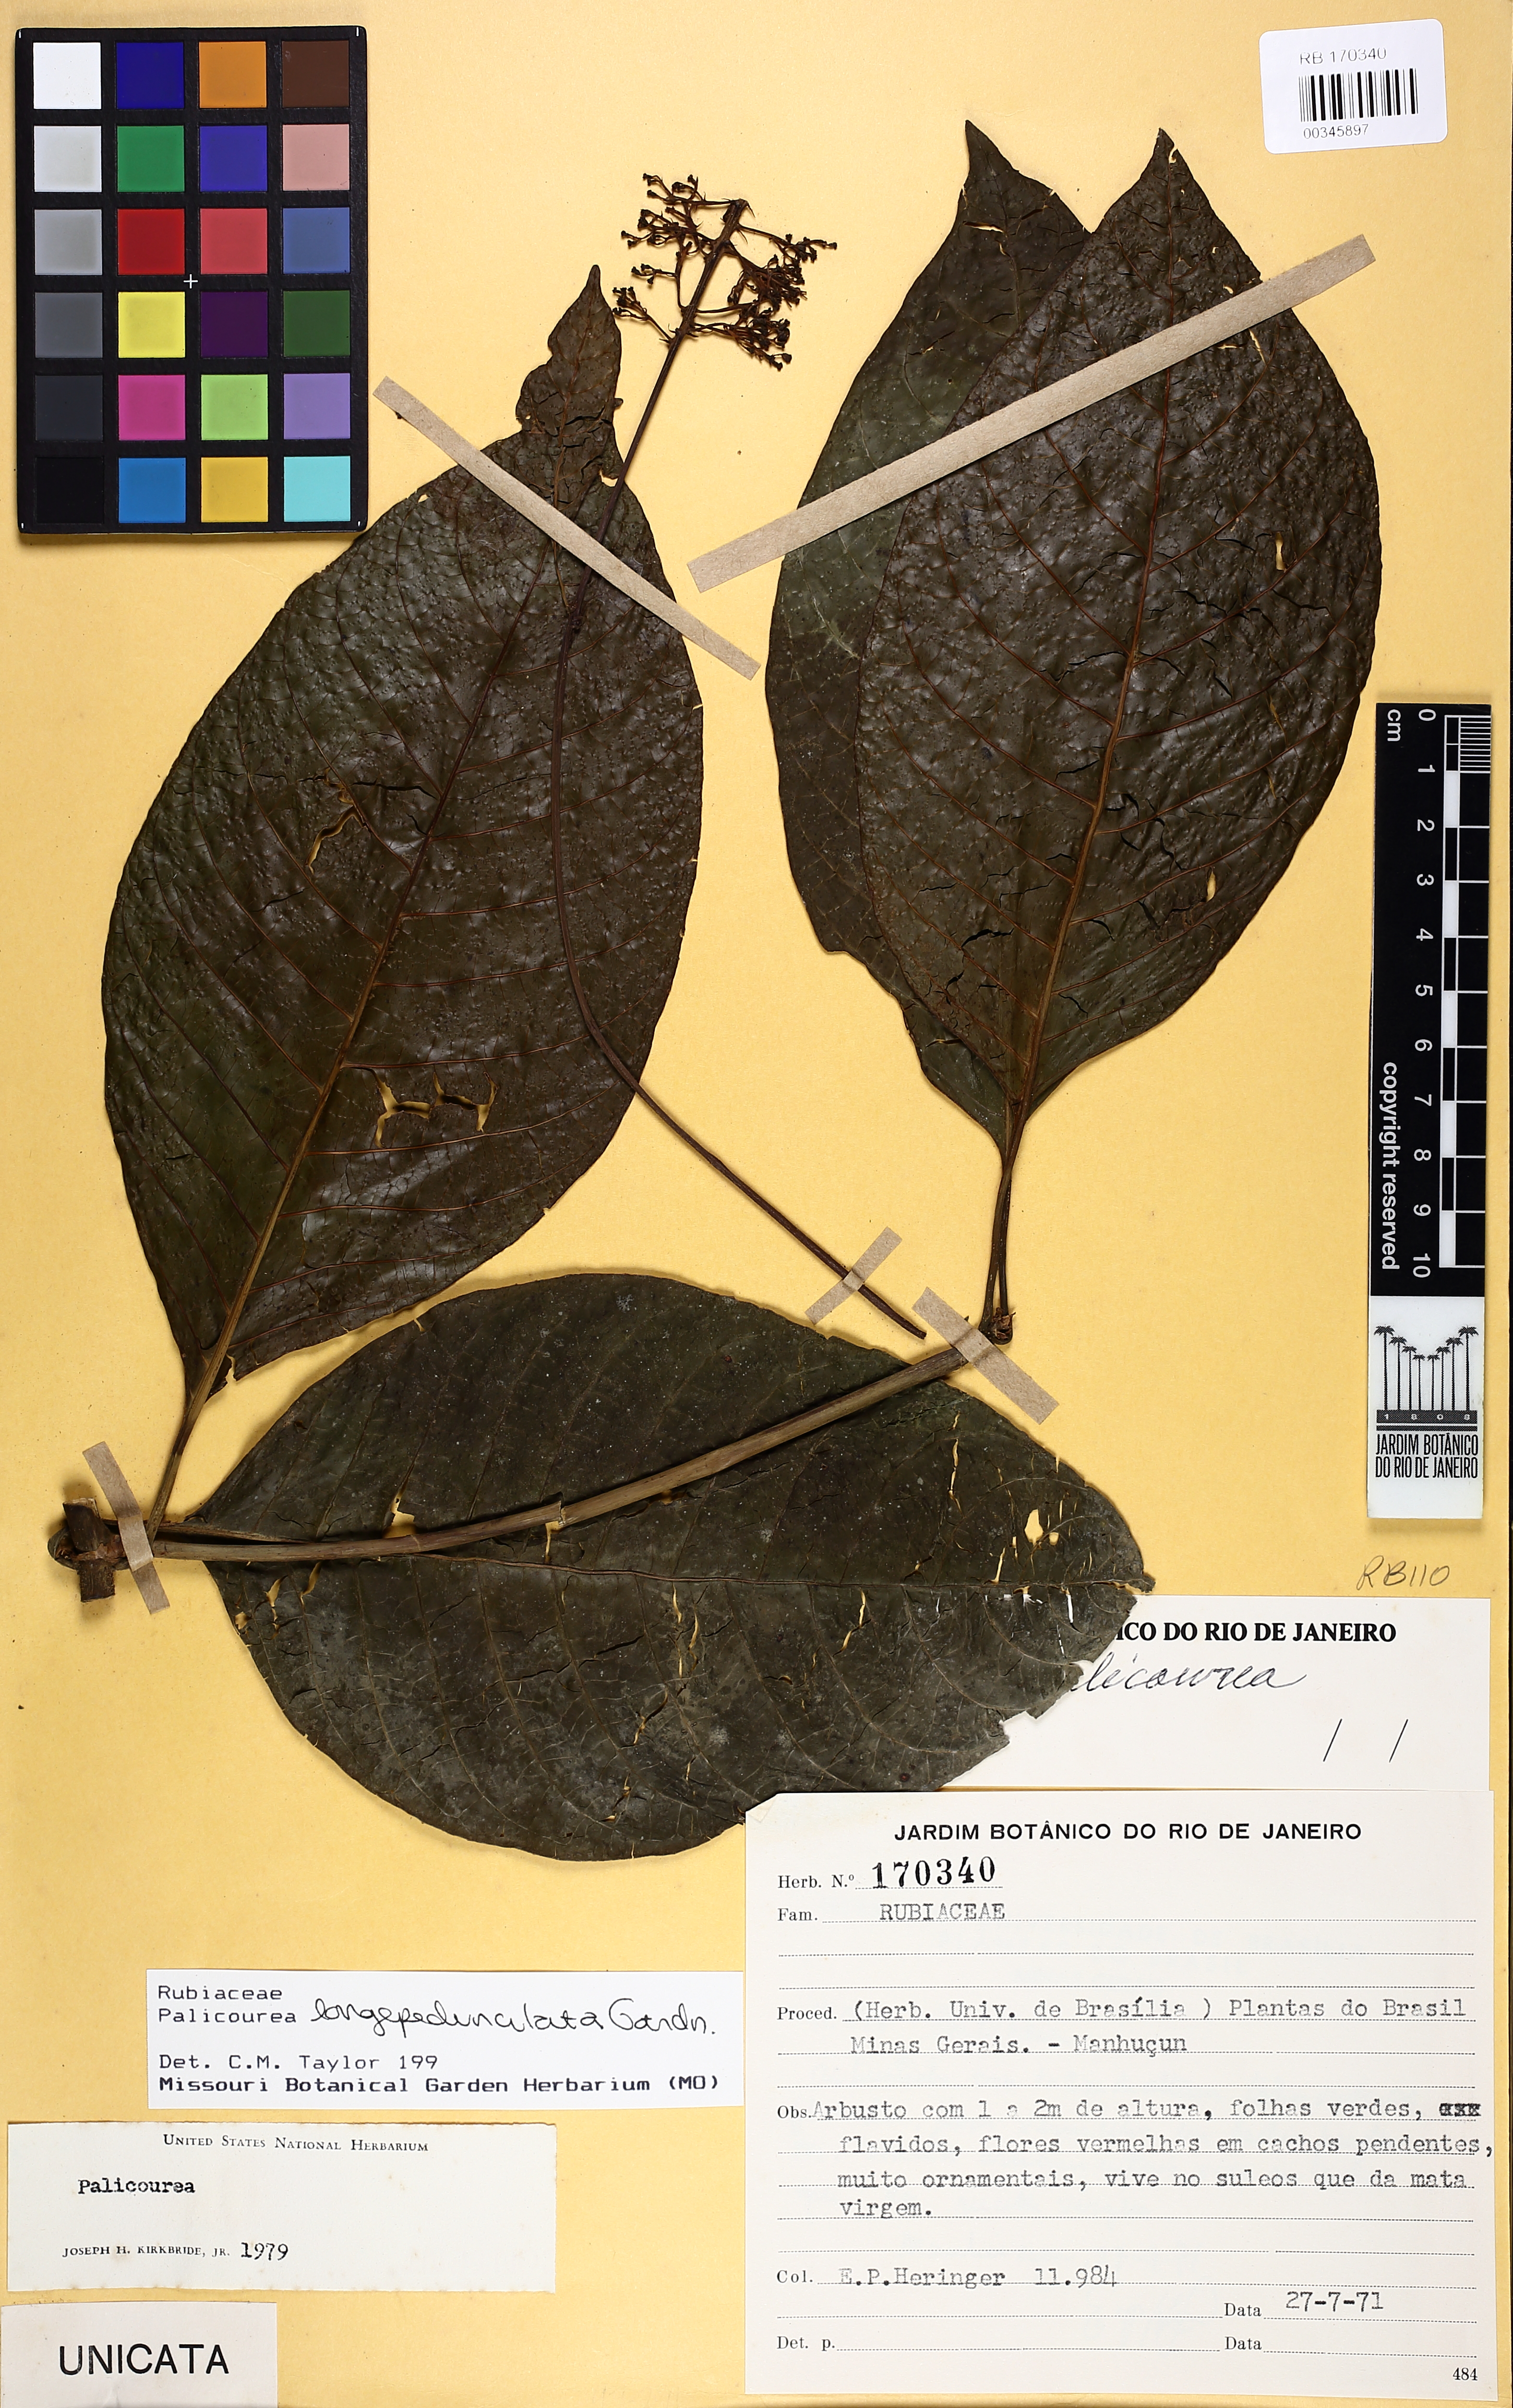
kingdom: Plantae
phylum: Tracheophyta
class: Magnoliopsida
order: Gentianales
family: Rubiaceae
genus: Palicourea
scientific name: Palicourea longipedunculata
